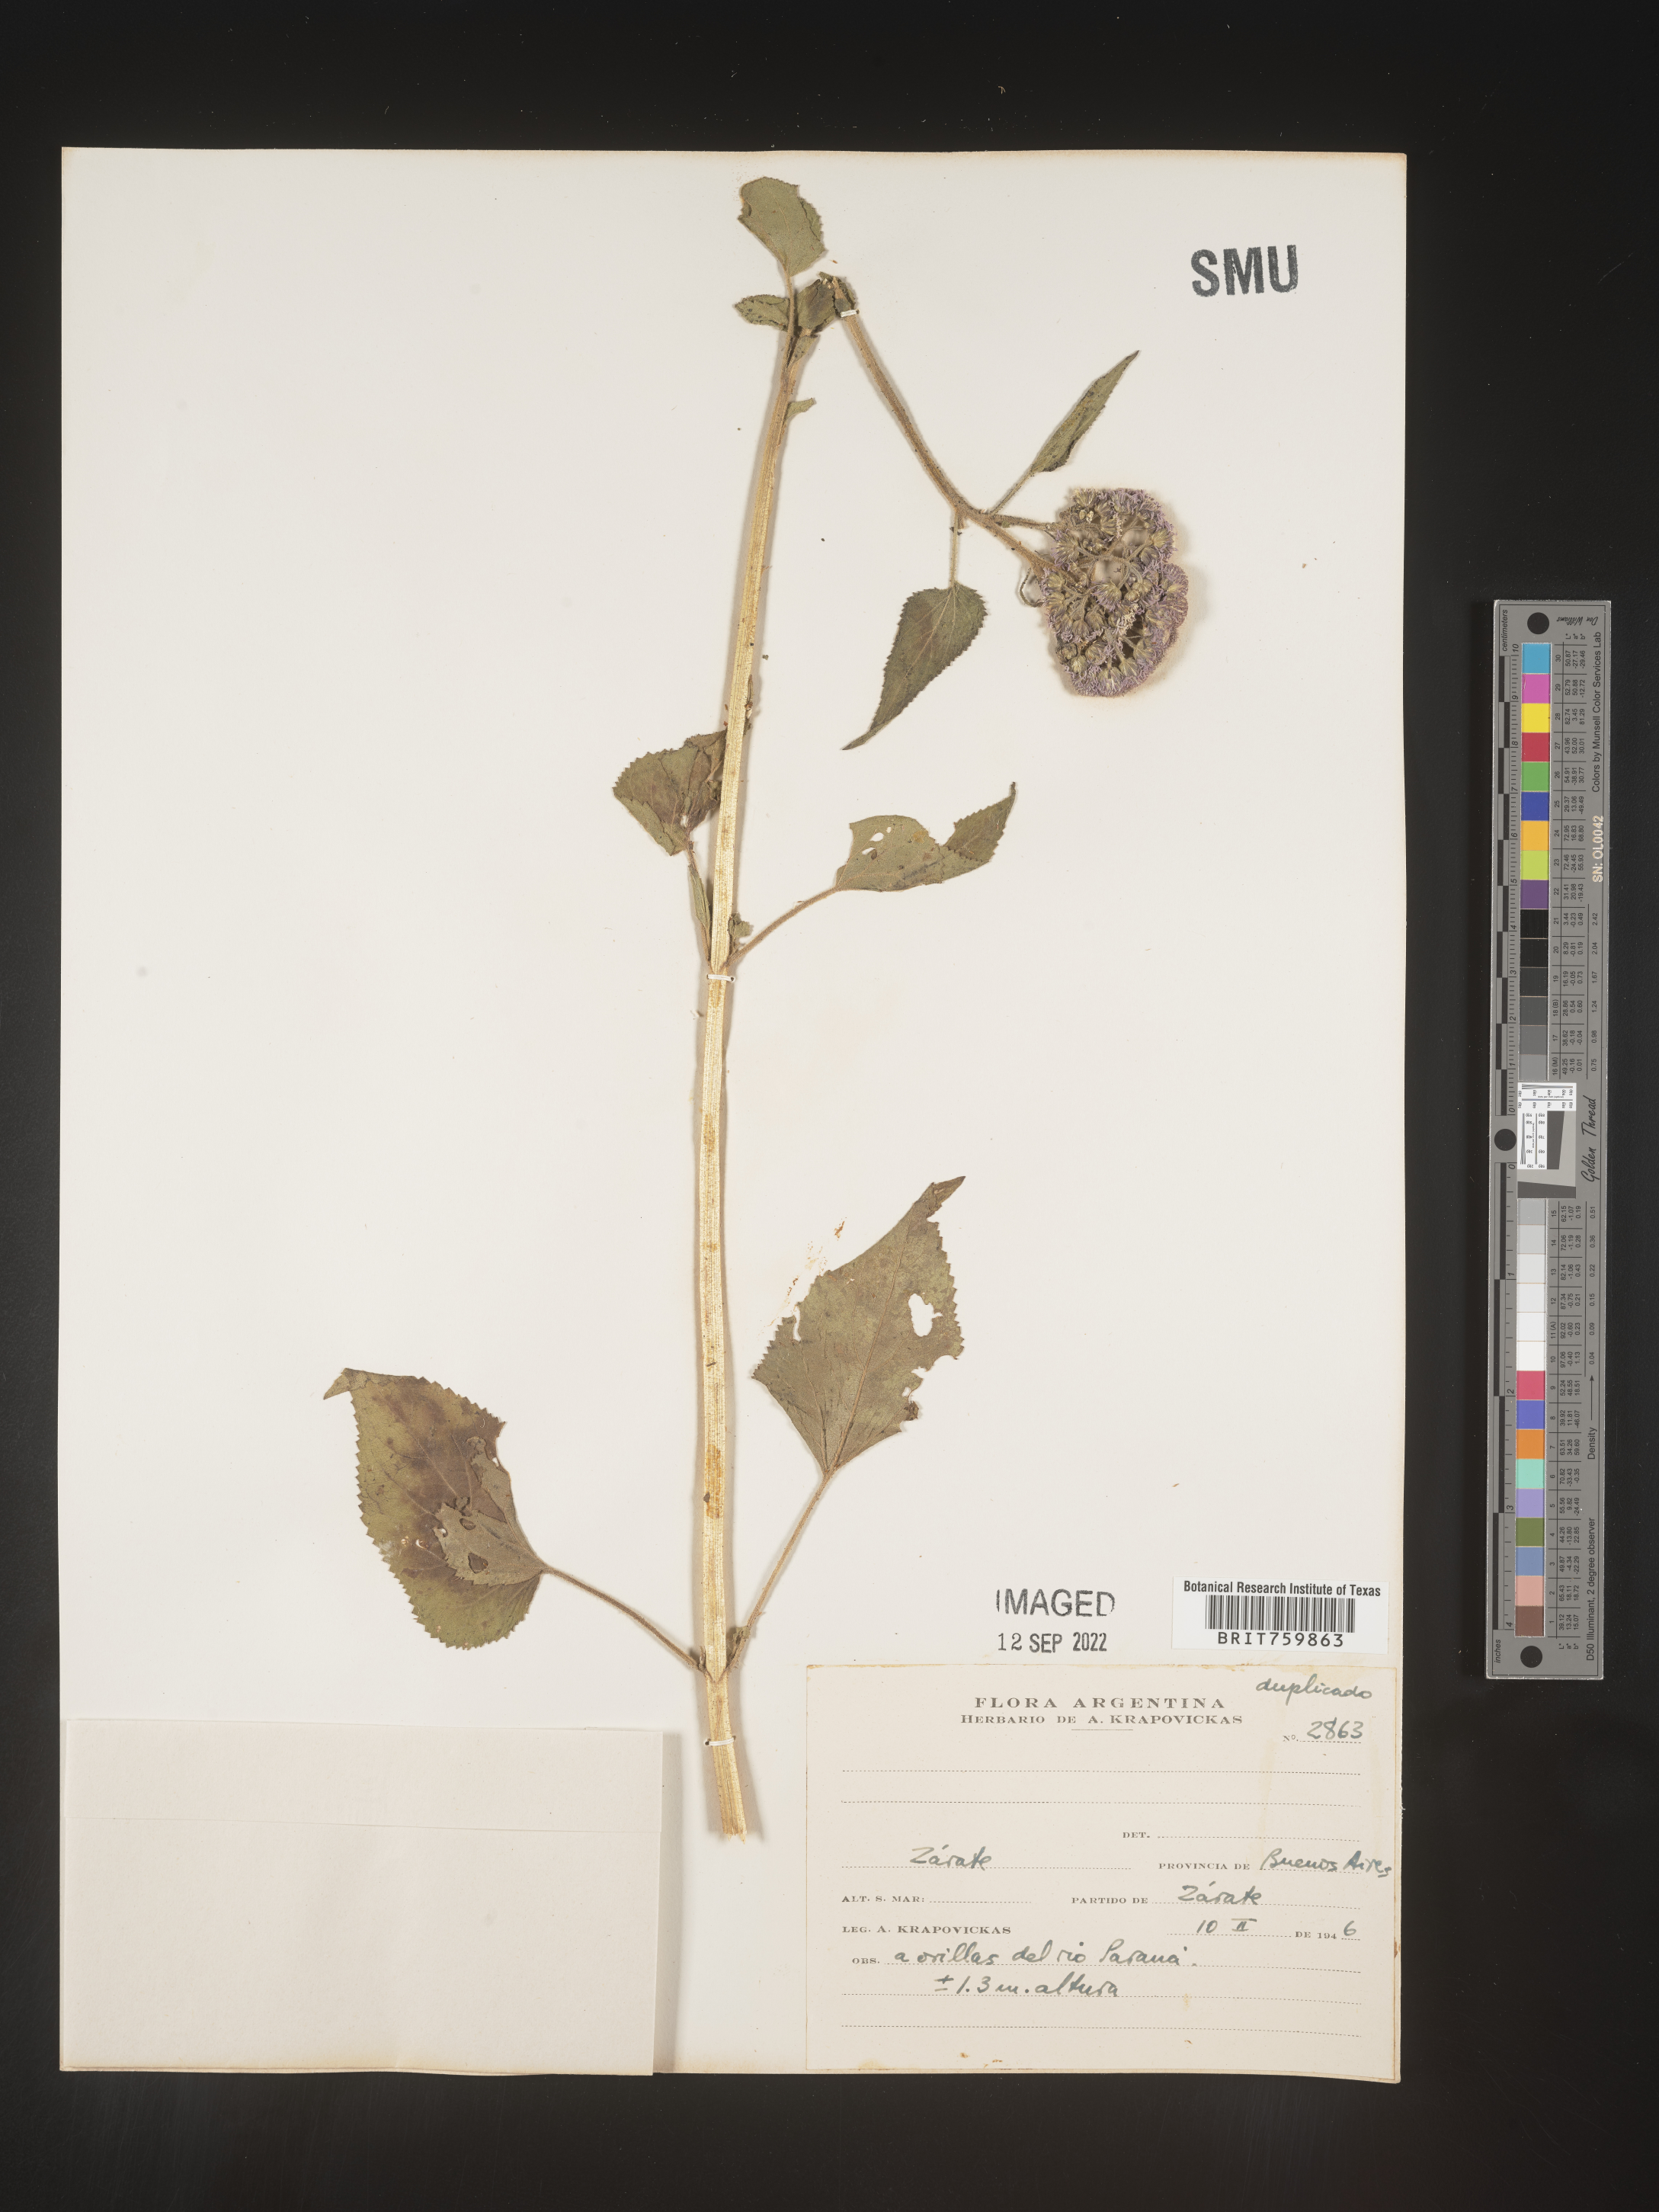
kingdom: Plantae
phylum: Tracheophyta
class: Magnoliopsida
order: Asterales
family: Asteraceae
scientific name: Asteraceae
